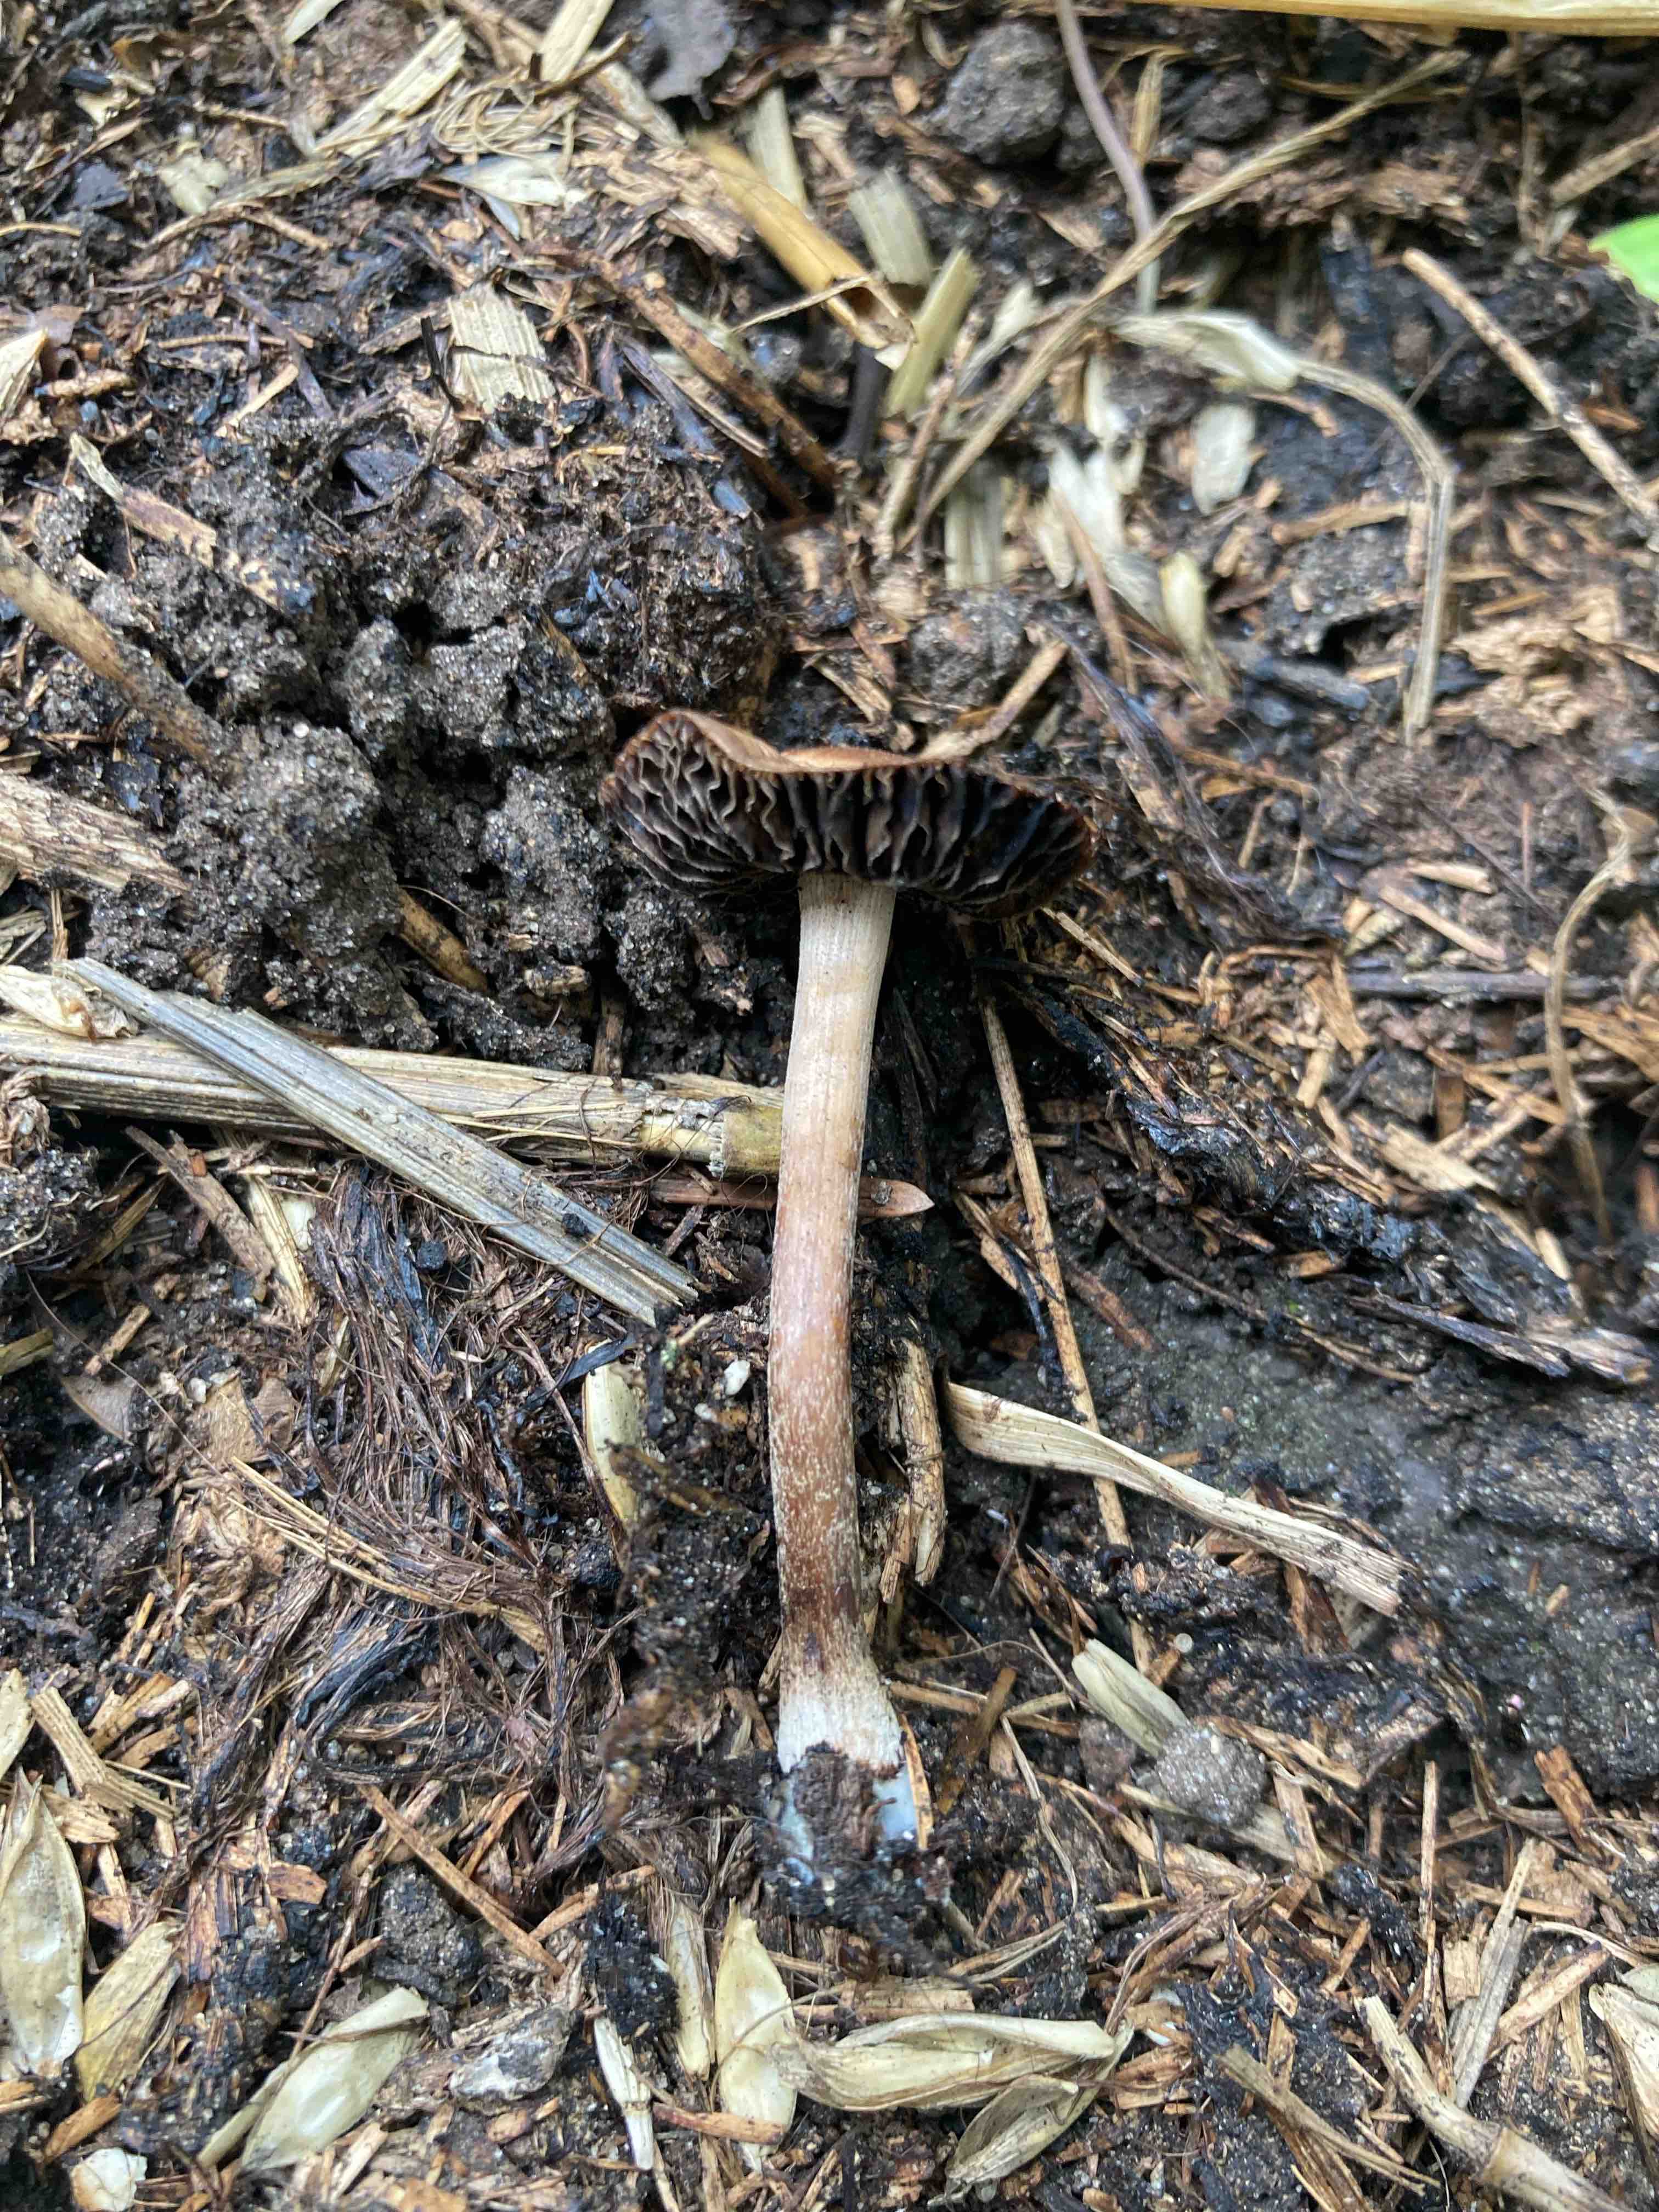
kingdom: Fungi
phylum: Basidiomycota
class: Agaricomycetes
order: Agaricales
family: Bolbitiaceae
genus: Panaeolus
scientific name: Panaeolus cinctulus
